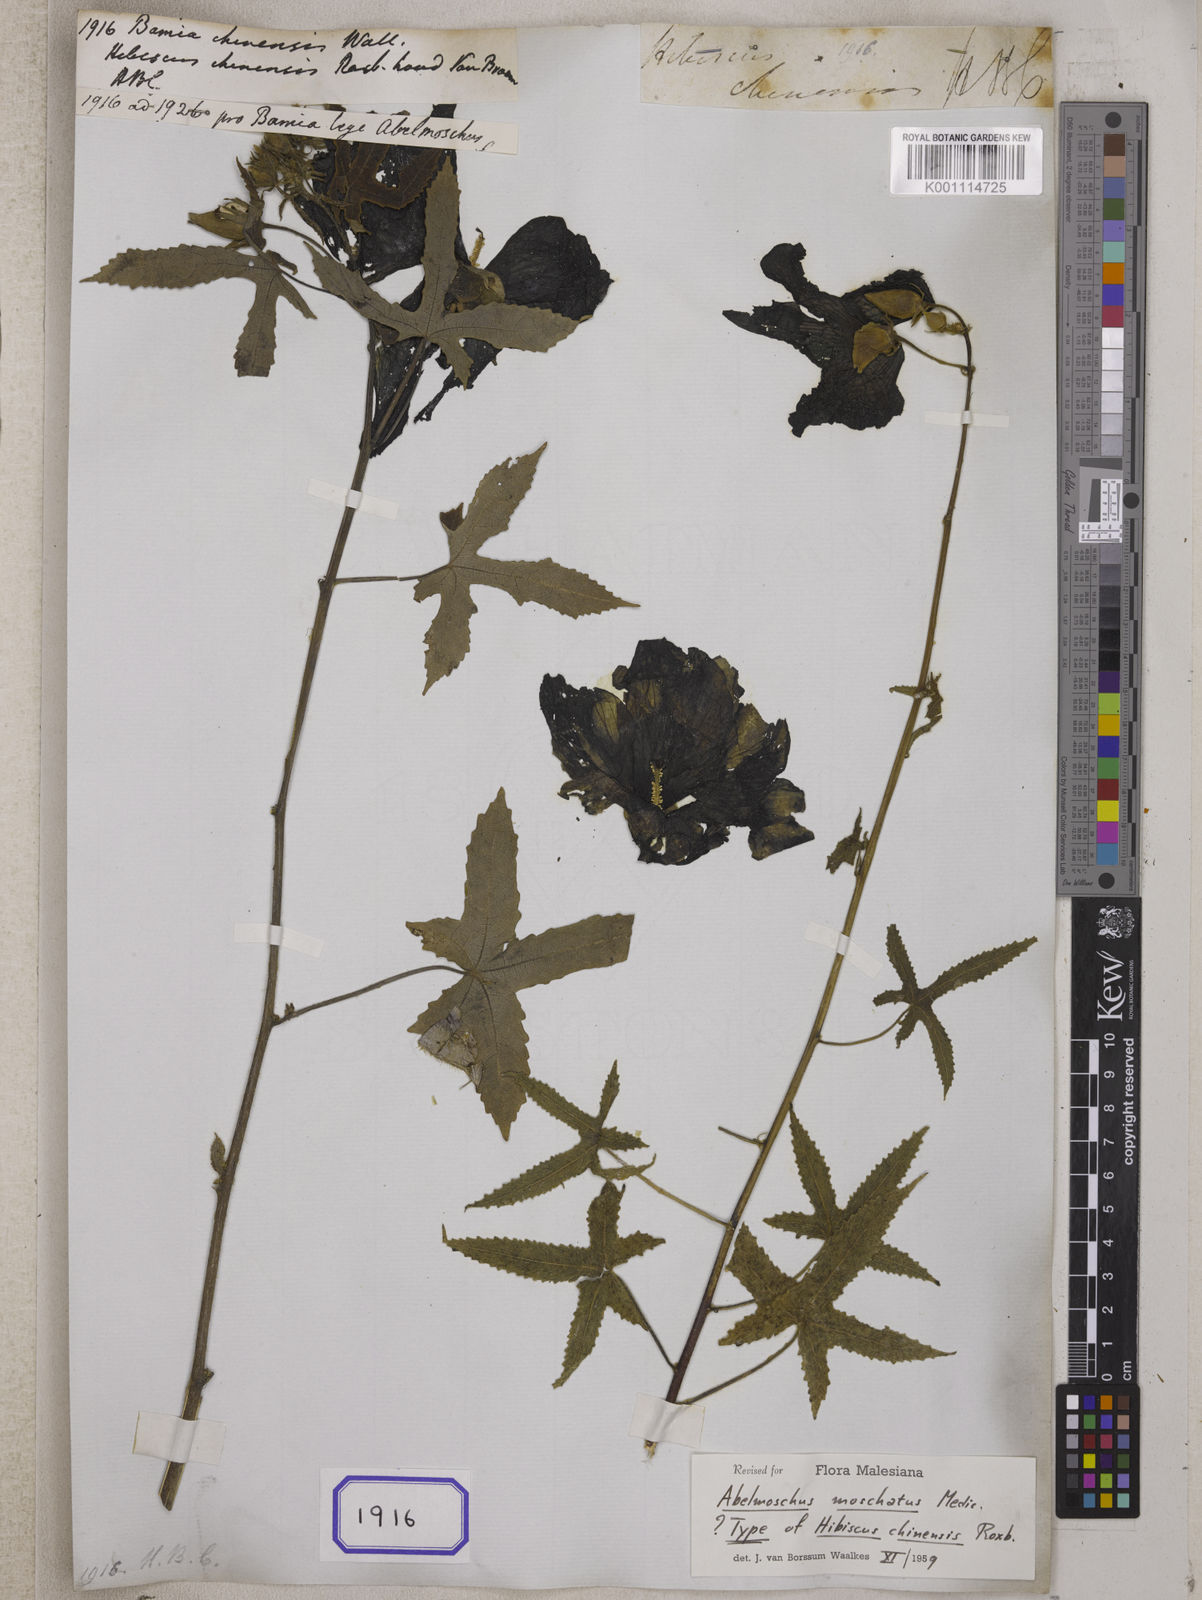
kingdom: Plantae
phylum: Tracheophyta
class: Magnoliopsida
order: Malvales
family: Malvaceae
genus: Bamia
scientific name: Bamia
